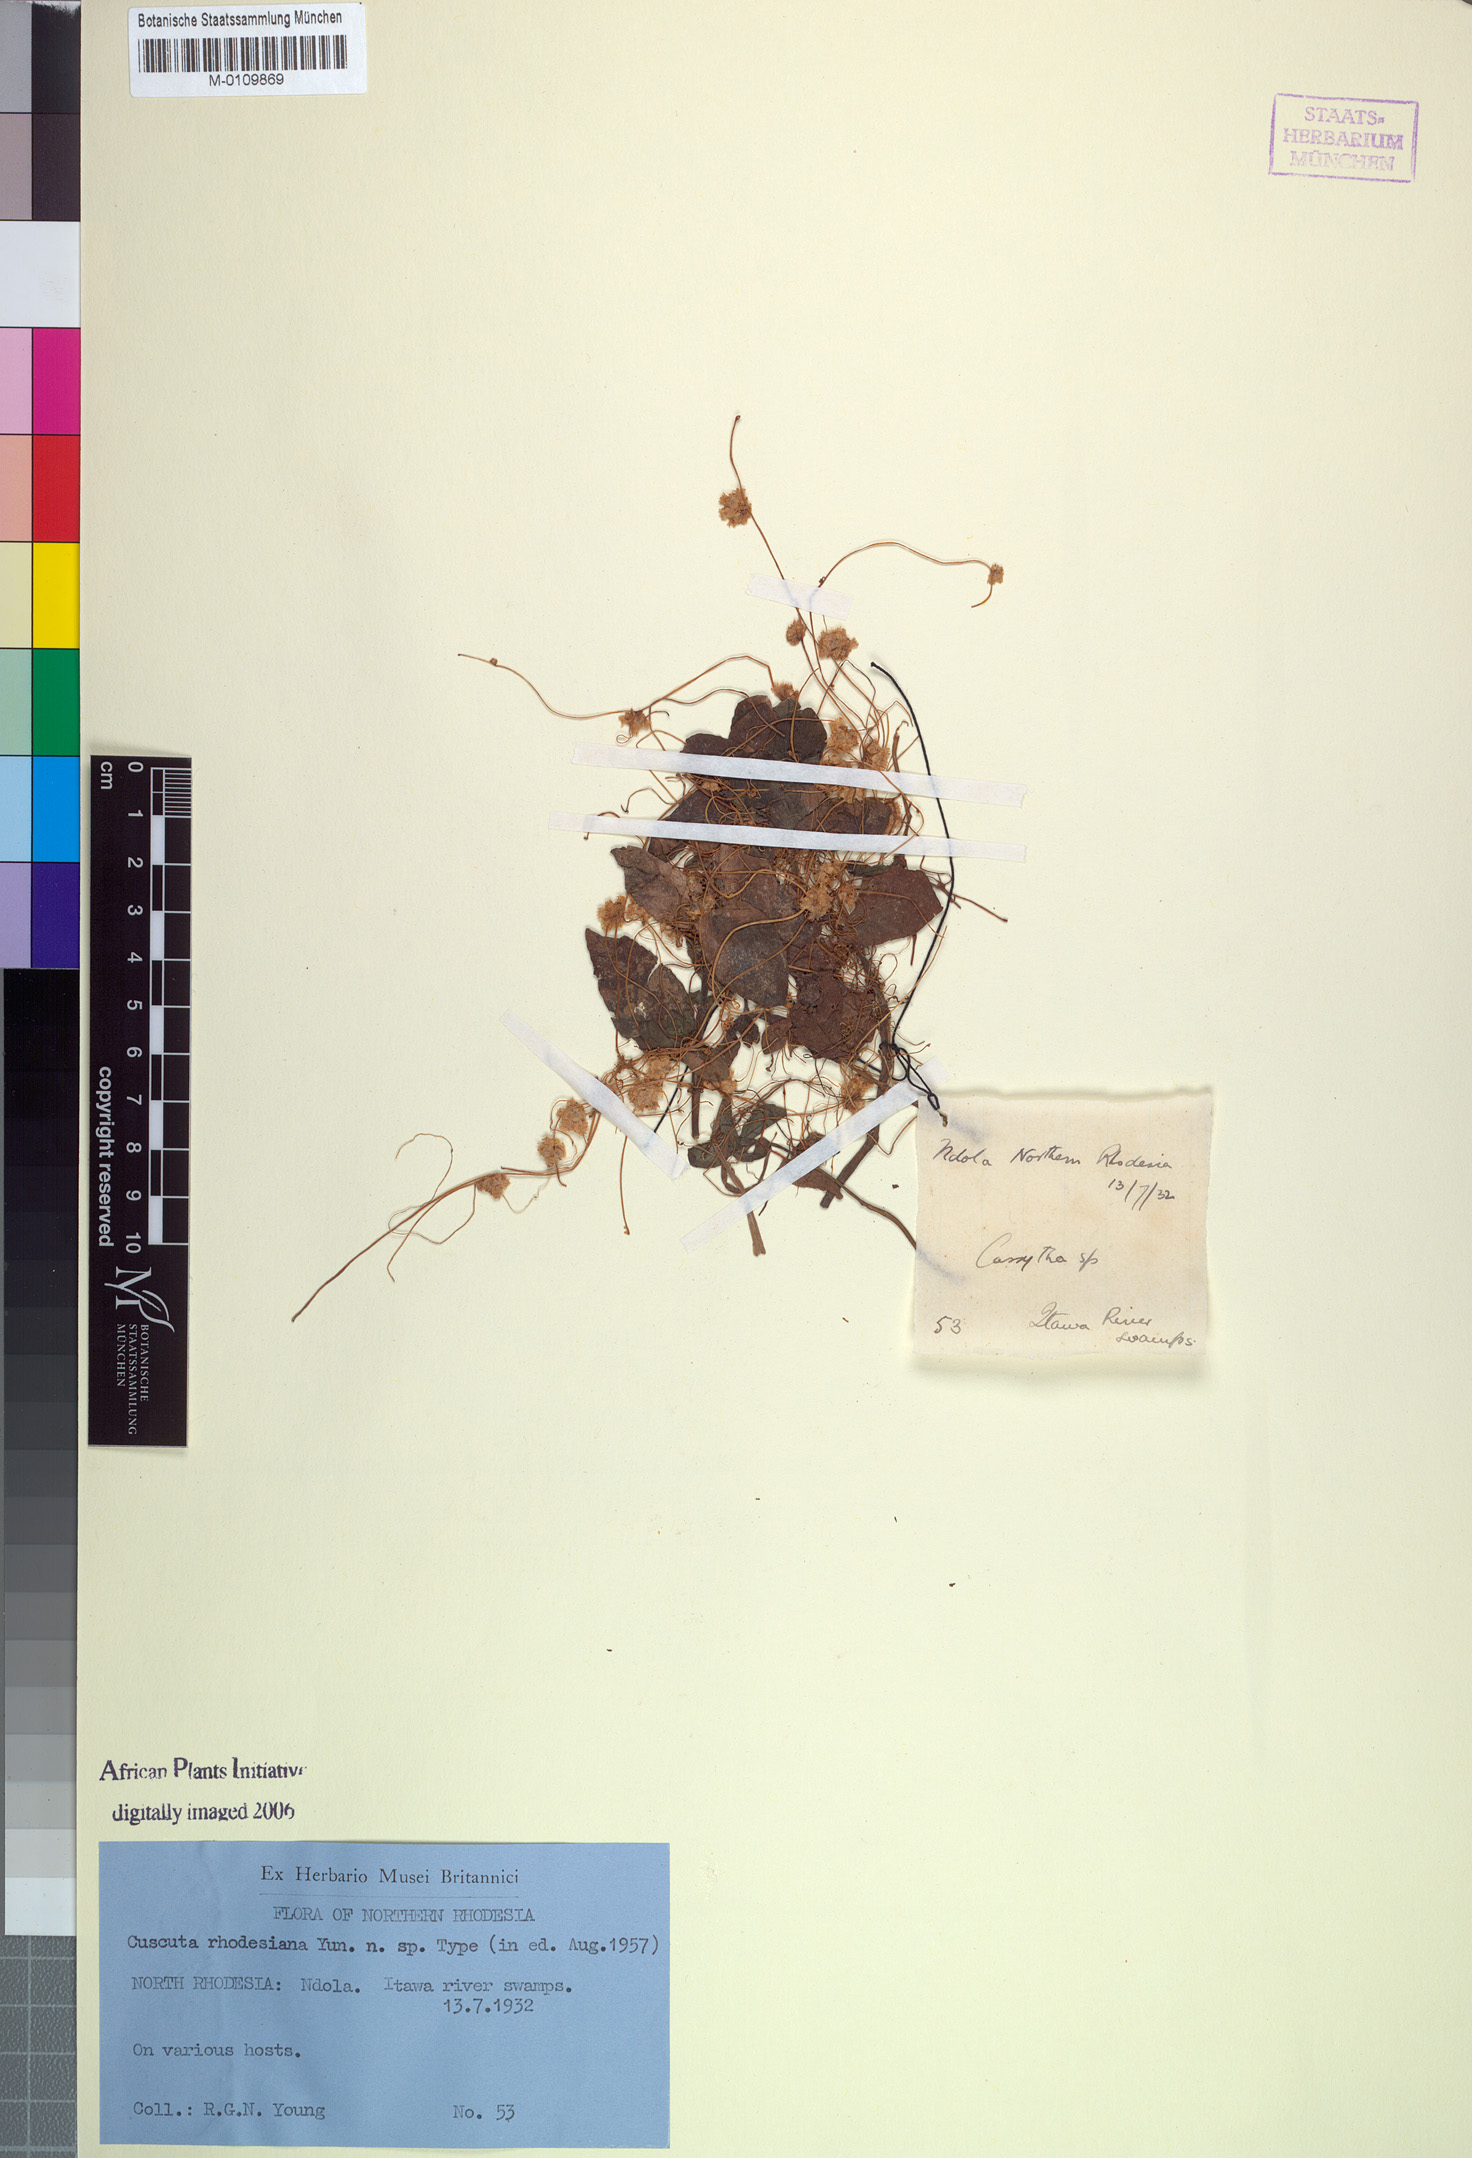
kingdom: Plantae
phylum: Tracheophyta
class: Magnoliopsida
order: Solanales
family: Convolvulaceae
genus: Cuscuta
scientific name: Cuscuta approximata
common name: Alfalfa dodder
